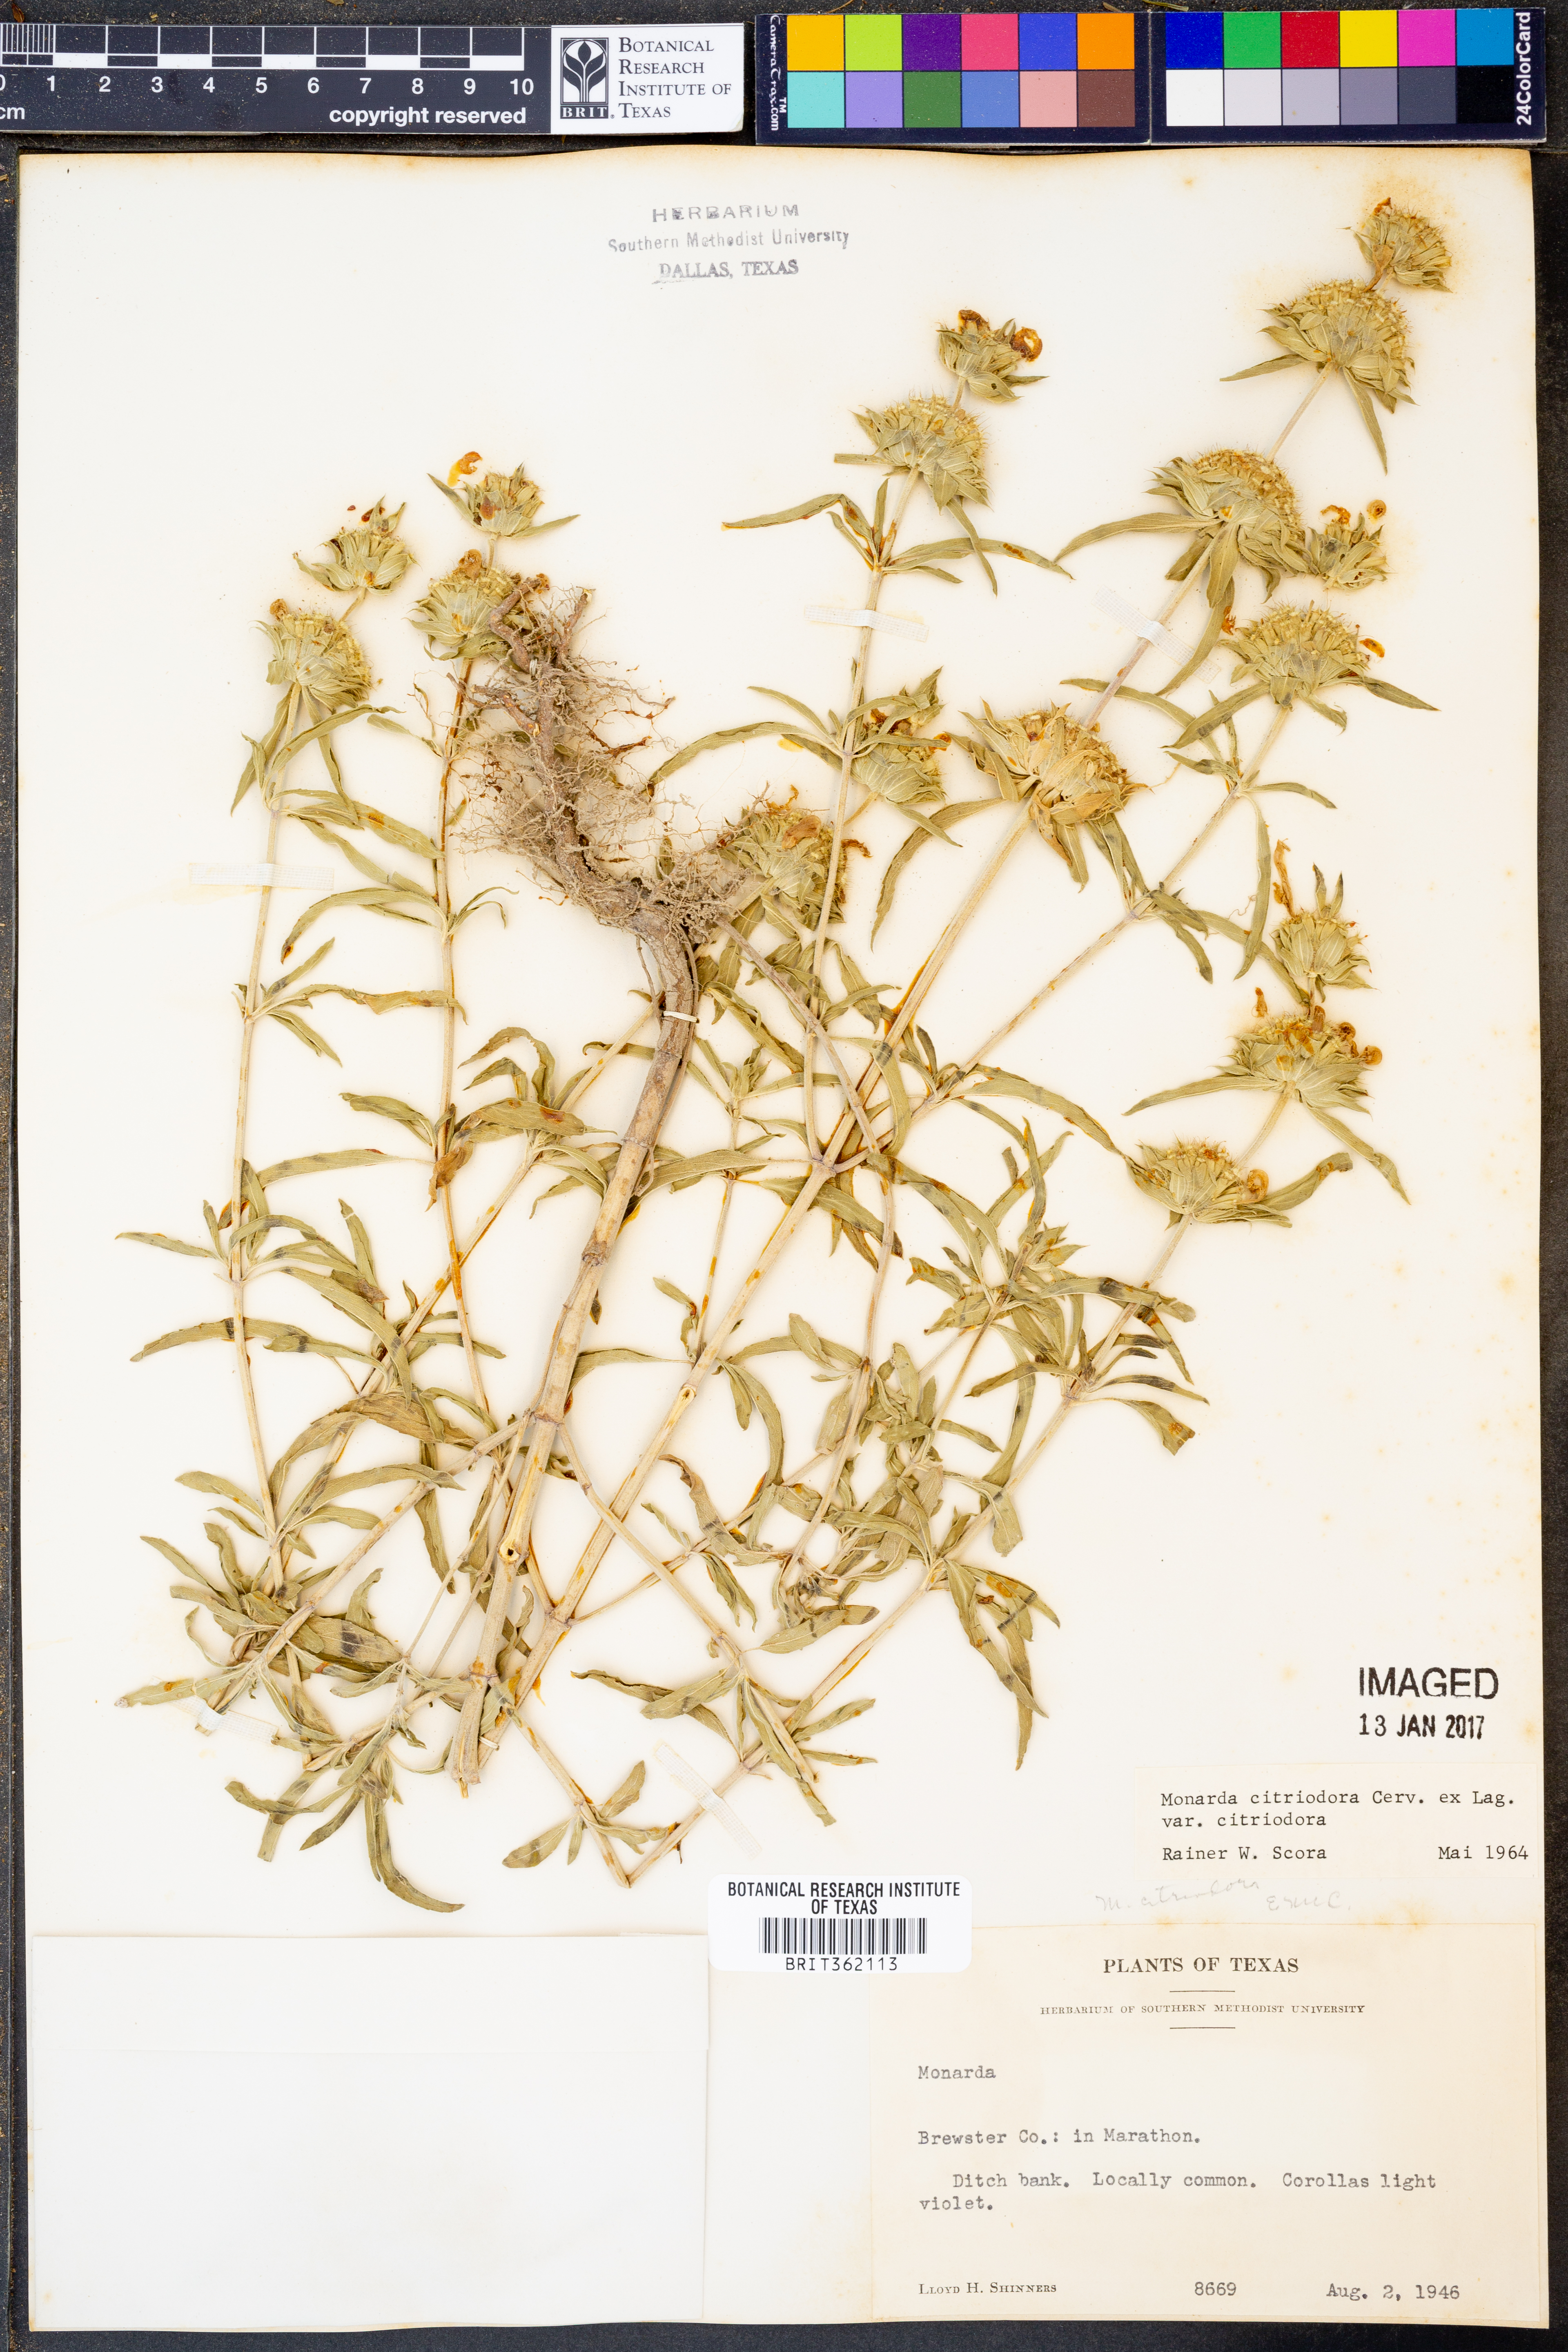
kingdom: Plantae
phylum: Tracheophyta
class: Magnoliopsida
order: Lamiales
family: Lamiaceae
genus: Monarda
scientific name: Monarda citriodora
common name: Lemon beebalm
